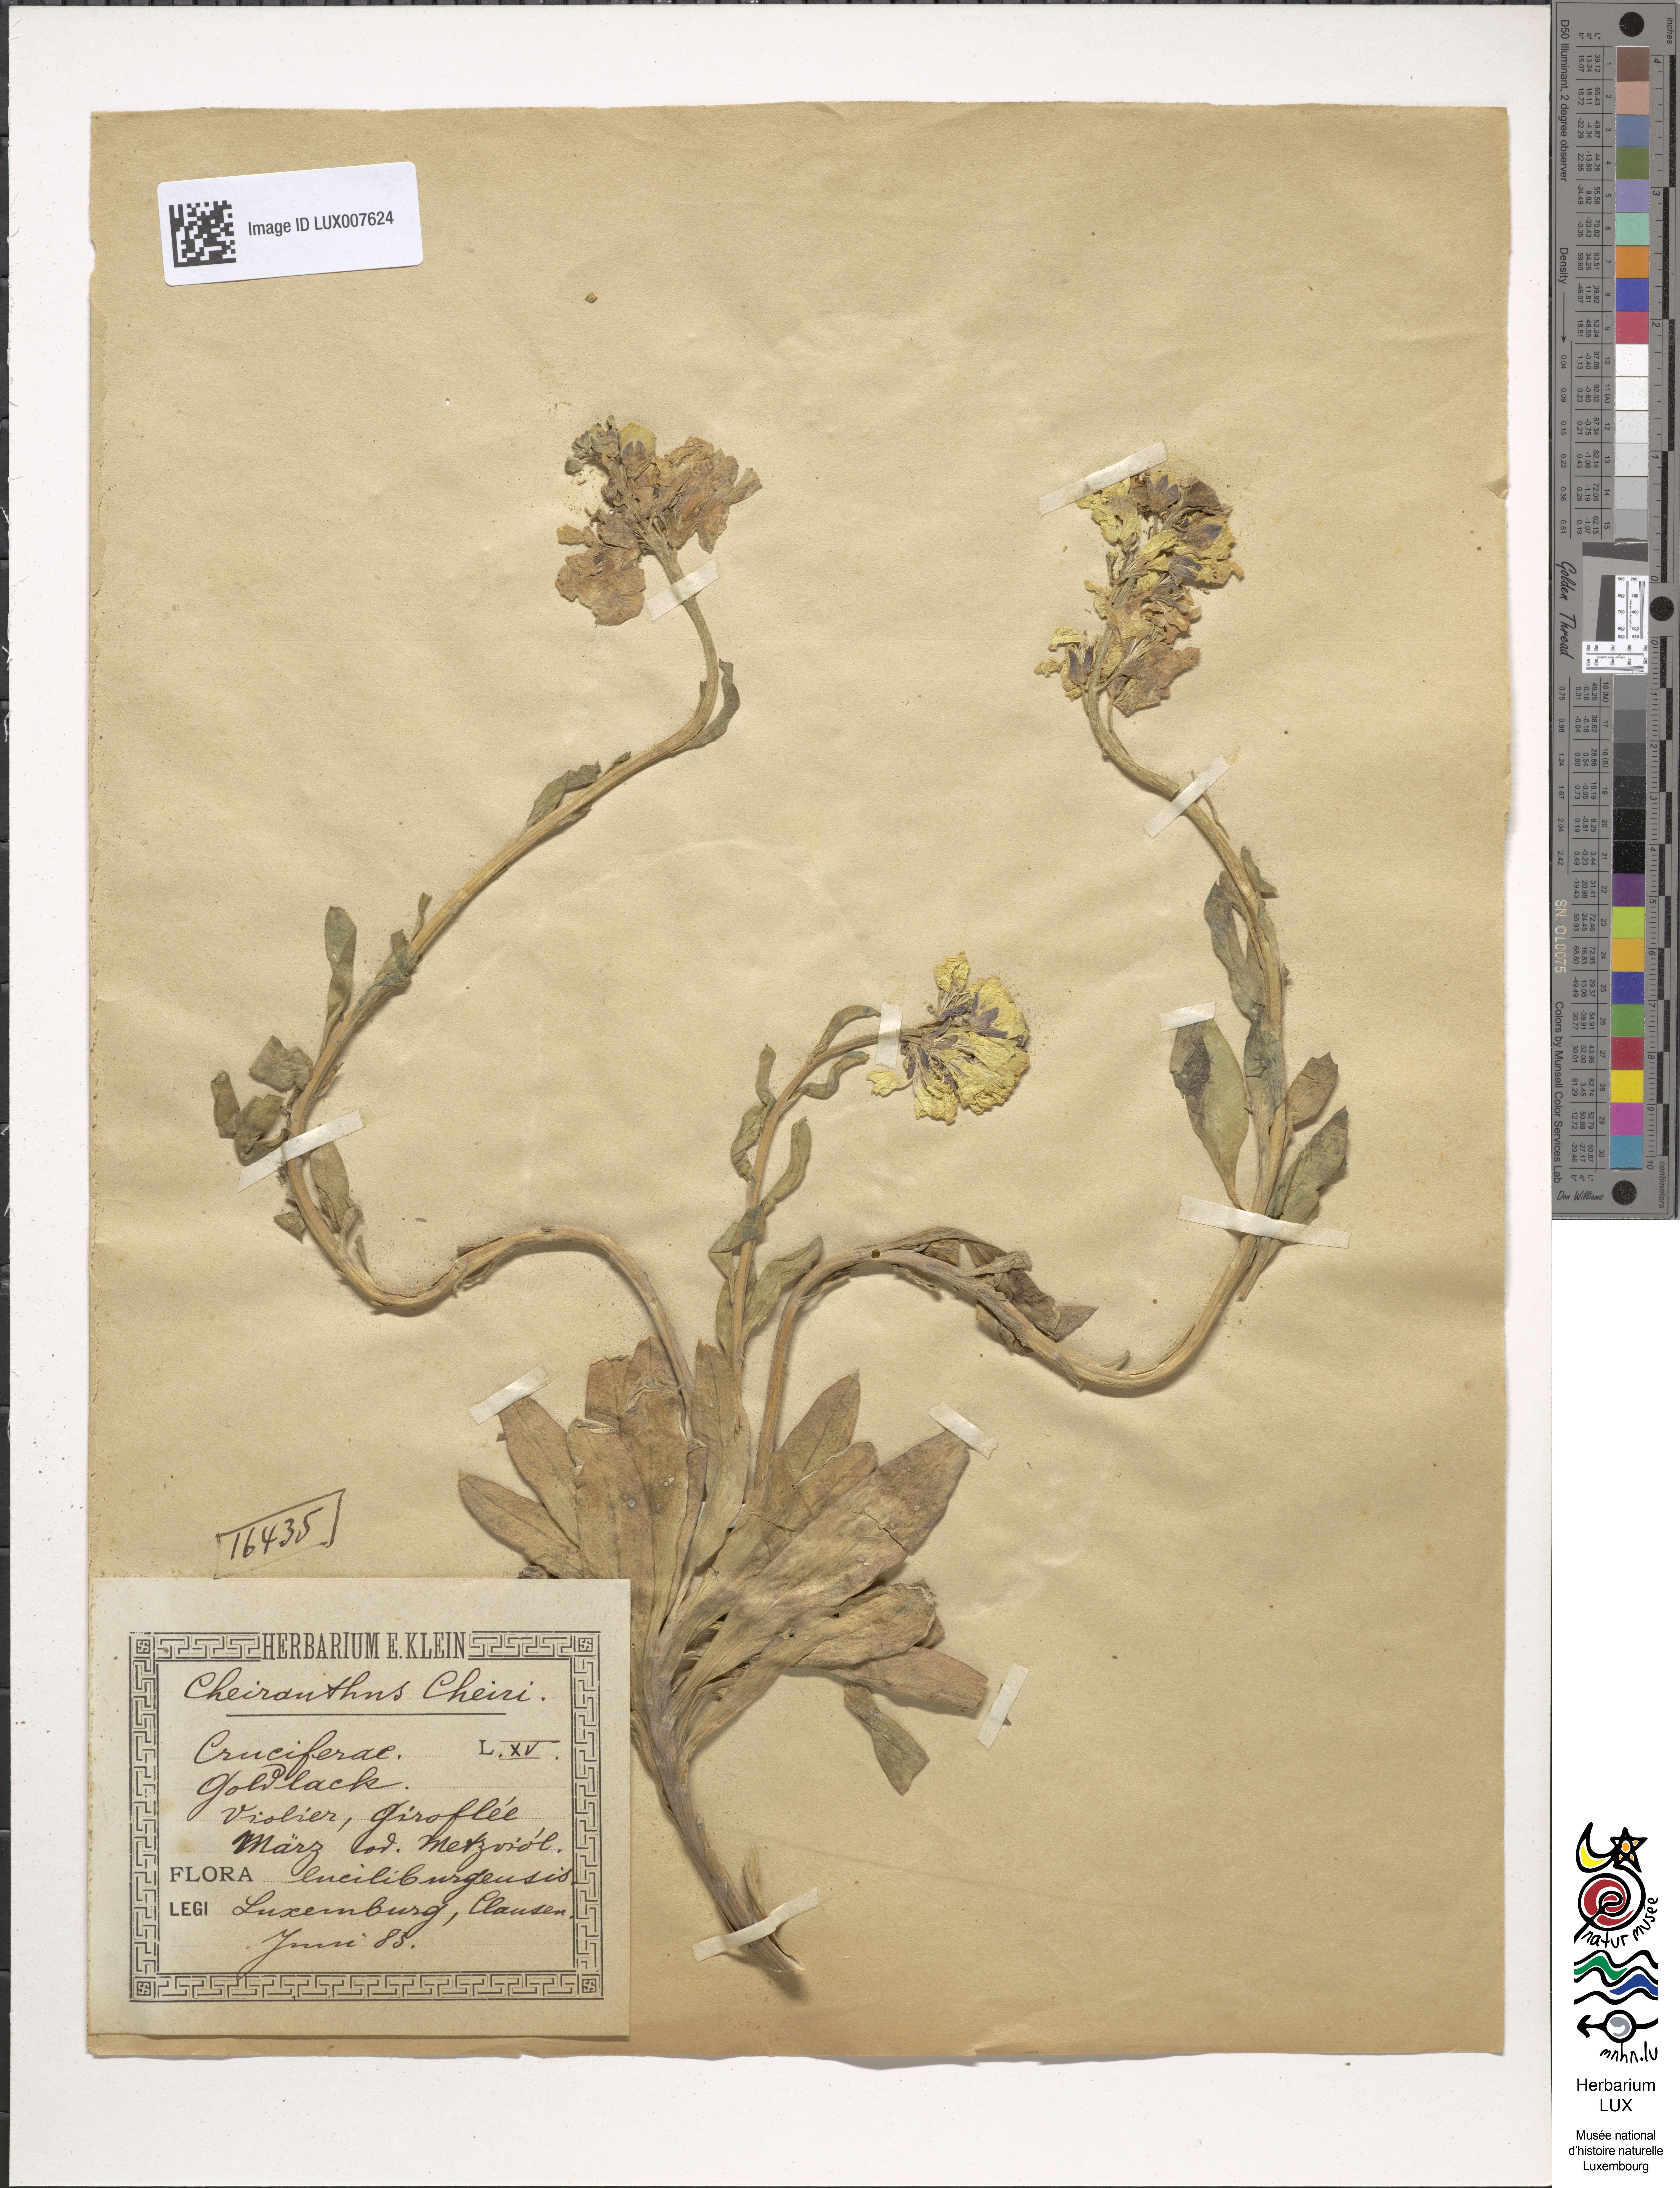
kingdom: Plantae
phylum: Tracheophyta
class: Magnoliopsida
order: Brassicales
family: Brassicaceae
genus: Erysimum
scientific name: Erysimum cheiri
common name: Wallflower
